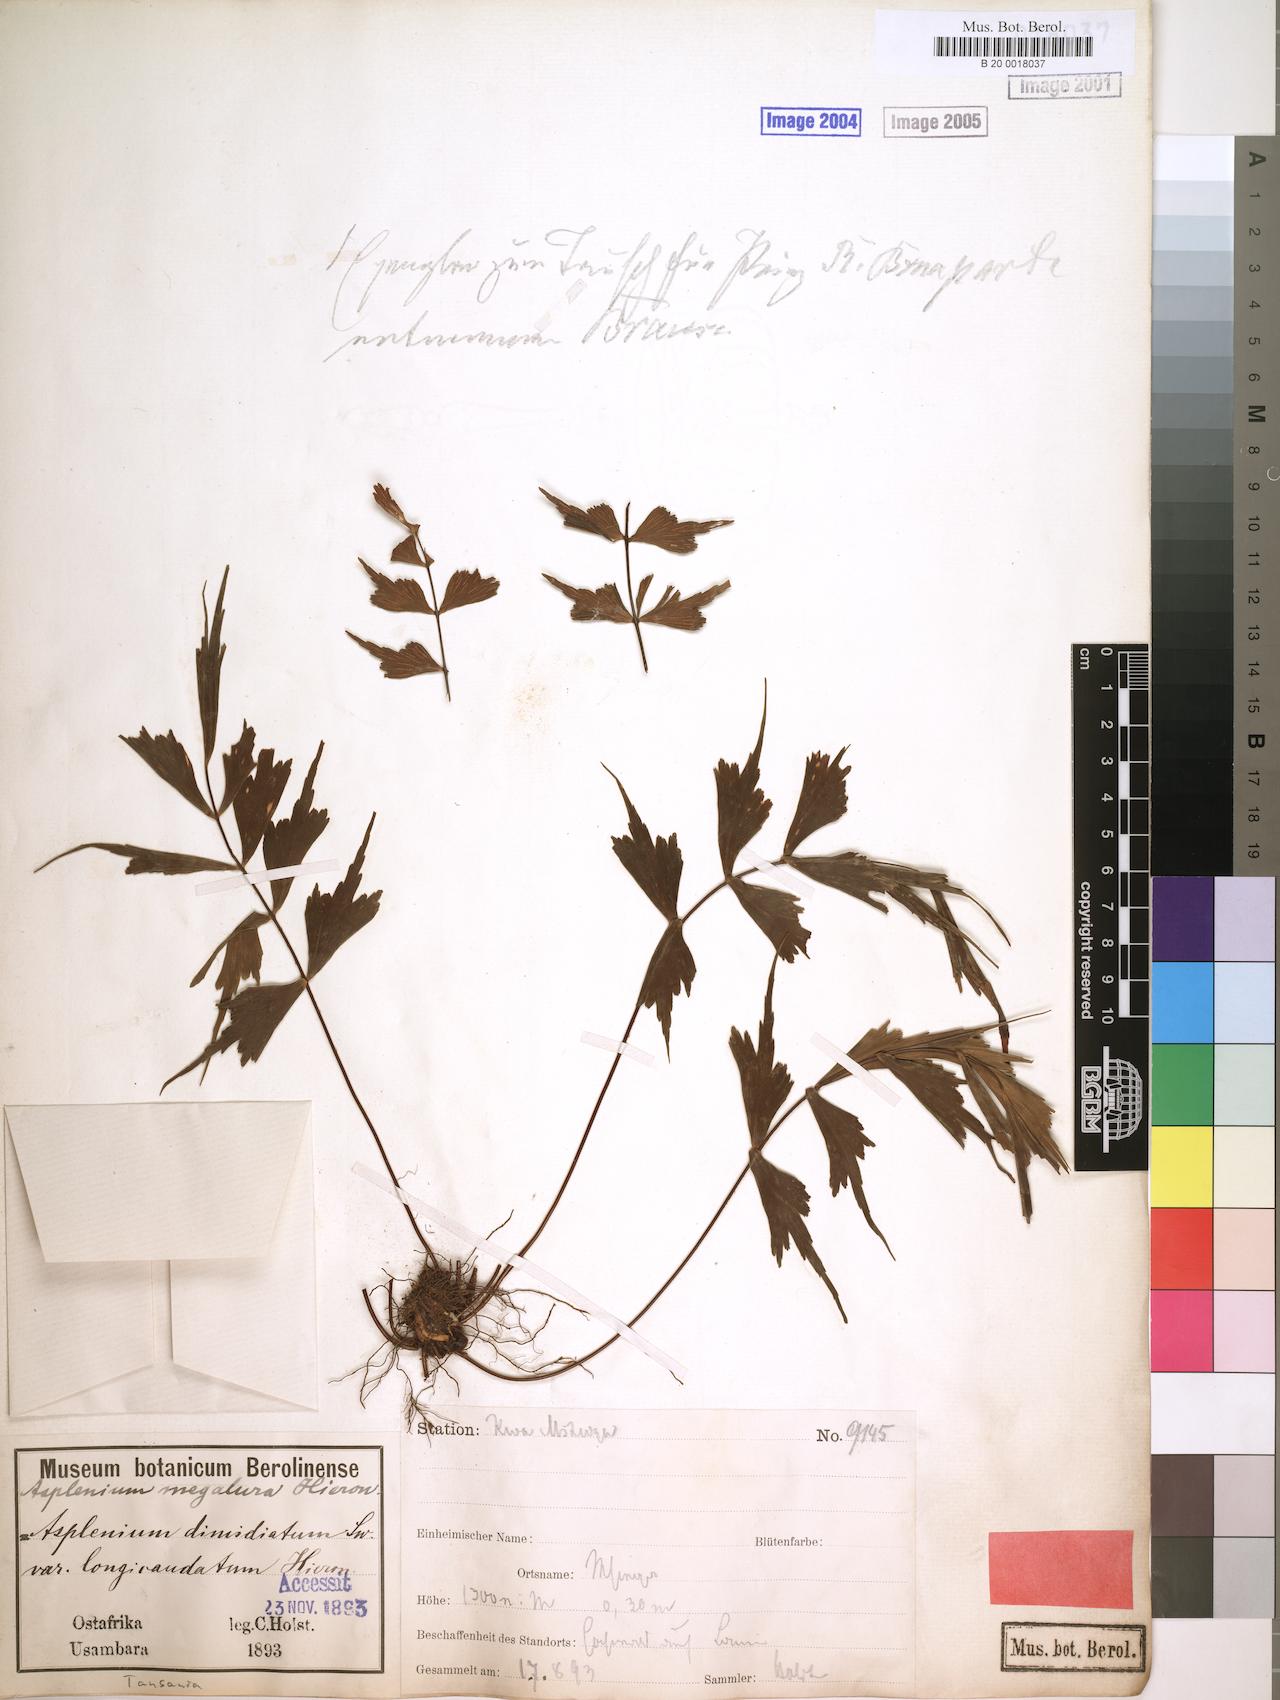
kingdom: Plantae
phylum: Tracheophyta
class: Polypodiopsida
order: Polypodiales
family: Aspleniaceae
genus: Asplenium
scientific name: Asplenium megalura
